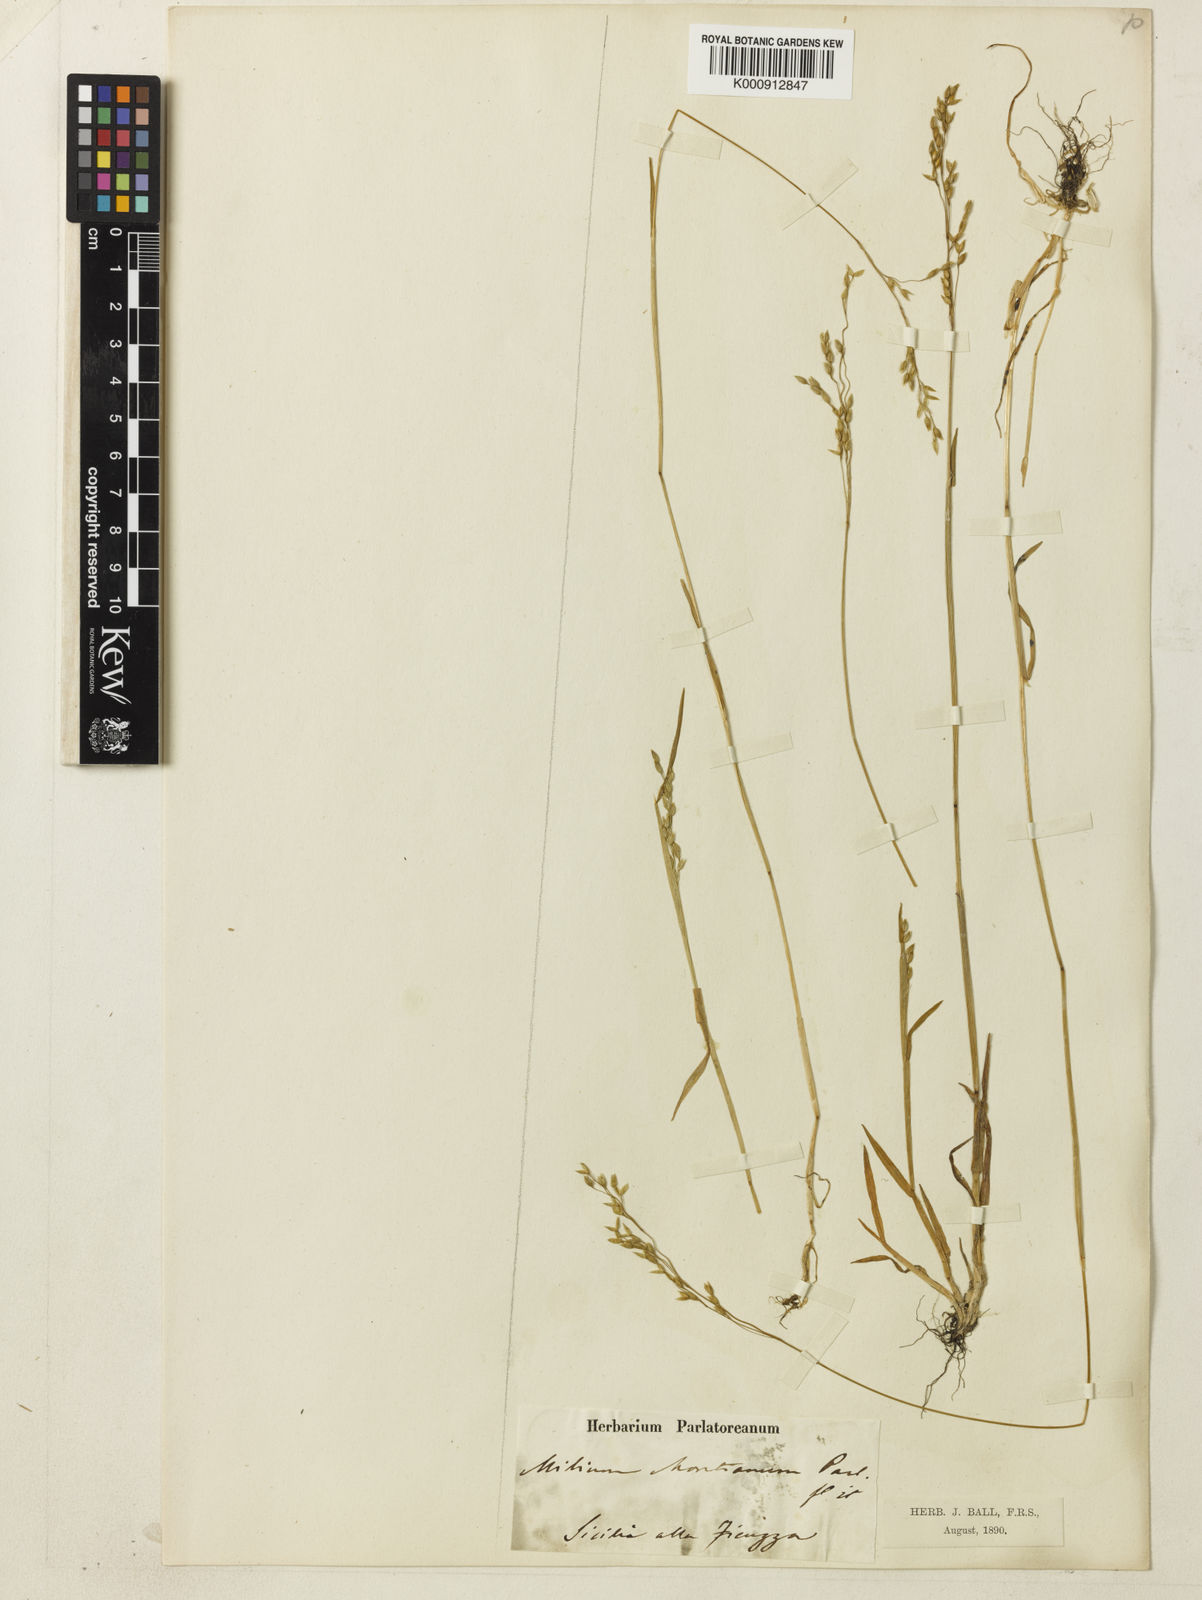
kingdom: Plantae
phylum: Tracheophyta
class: Liliopsida
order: Poales
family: Poaceae
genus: Milium
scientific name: Milium vernale
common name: Early millet
